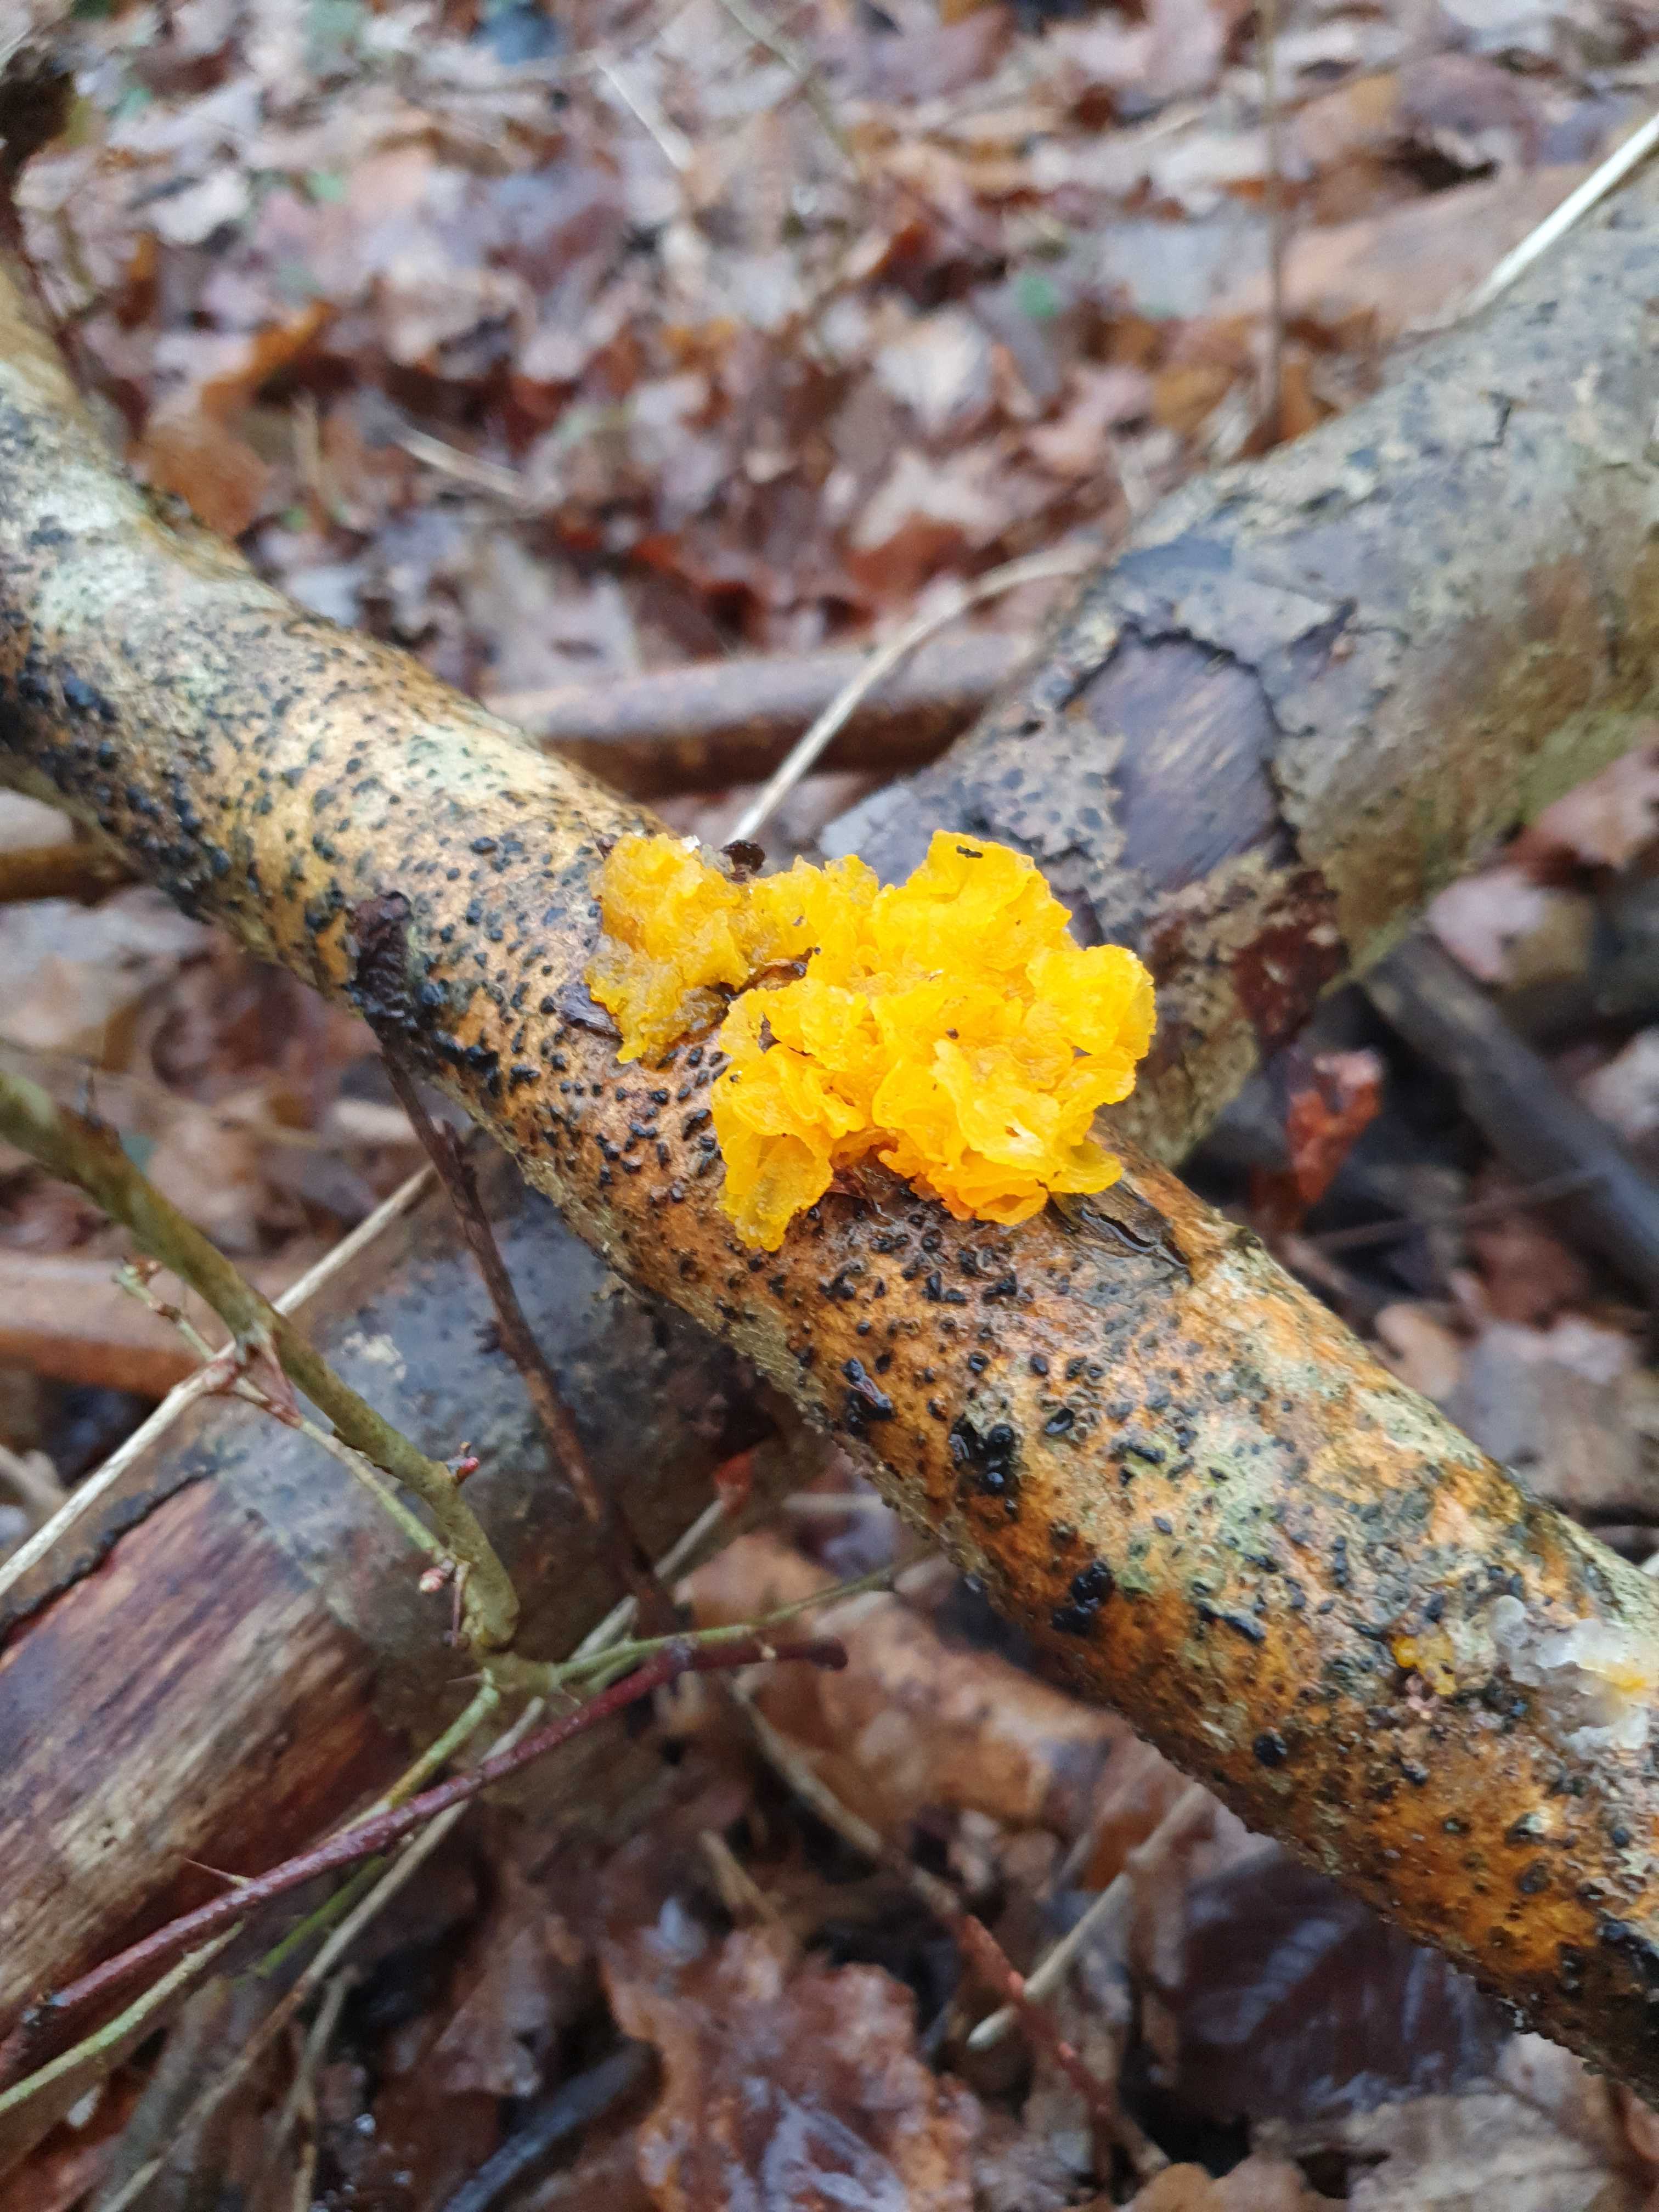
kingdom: Fungi
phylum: Basidiomycota
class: Tremellomycetes
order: Tremellales
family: Tremellaceae
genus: Tremella
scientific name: Tremella mesenterica
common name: gul bævresvamp
